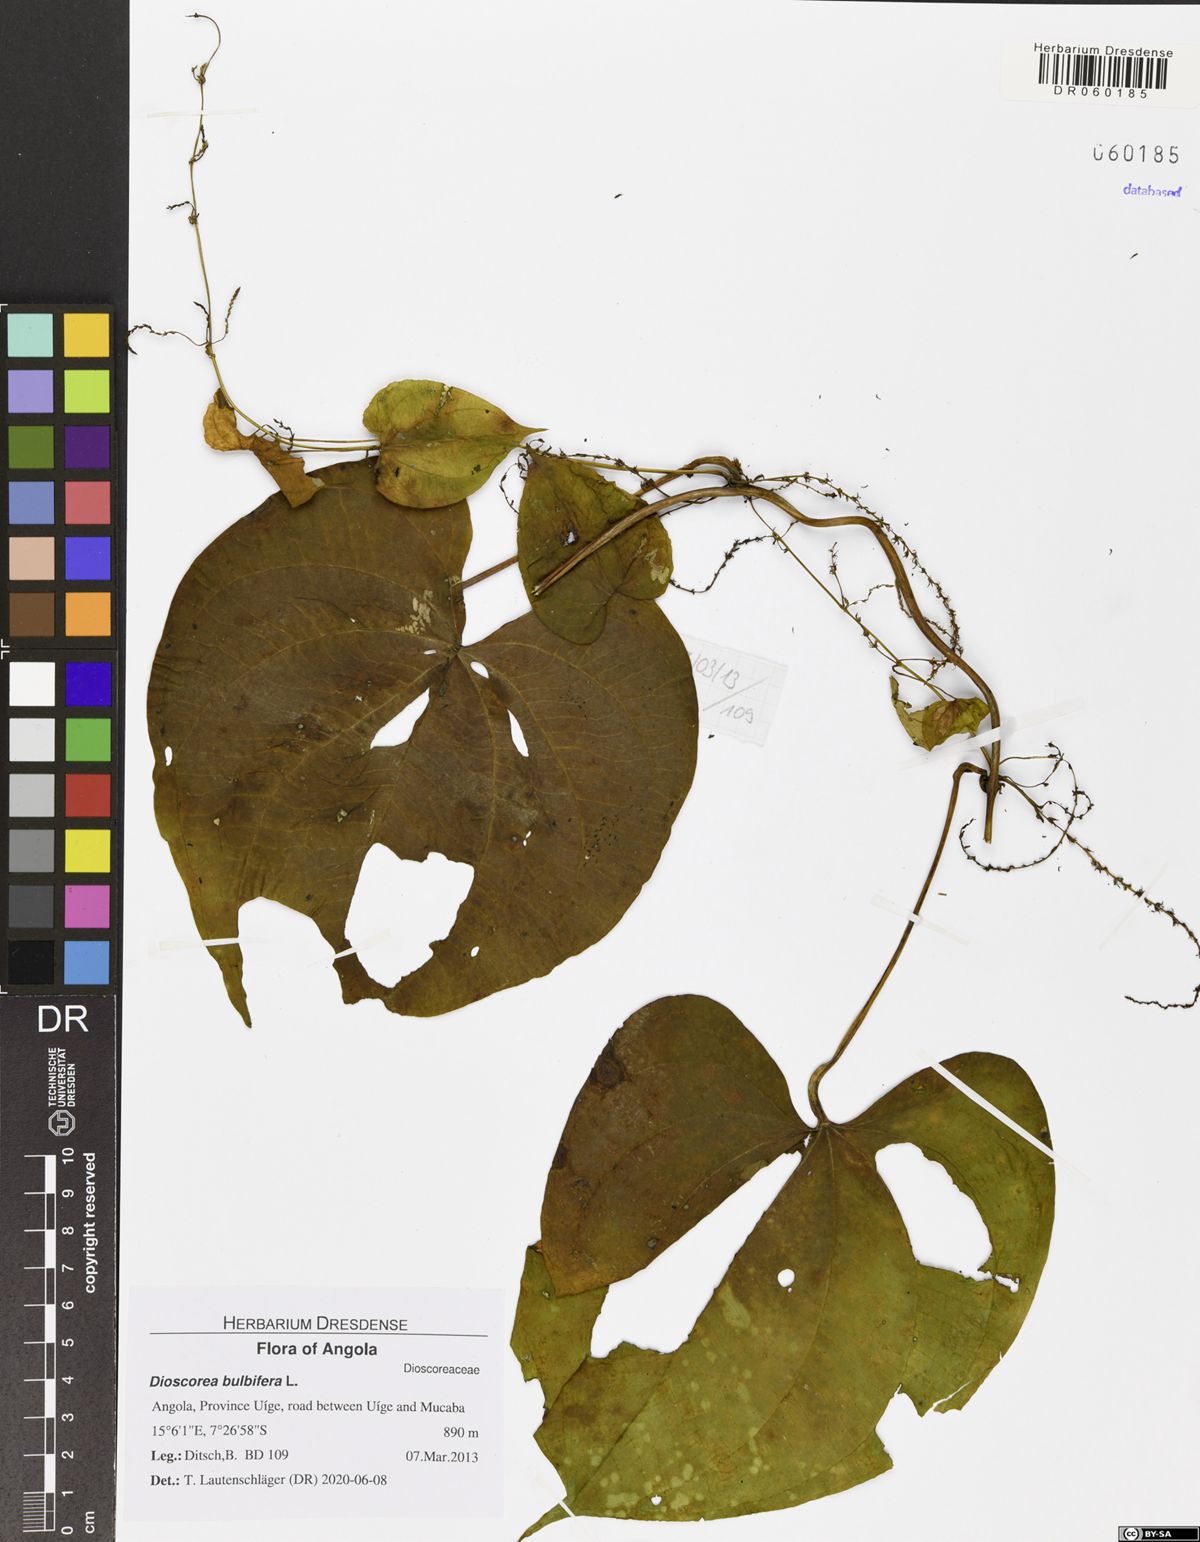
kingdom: Plantae
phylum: Tracheophyta
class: Liliopsida
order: Dioscoreales
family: Dioscoreaceae
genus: Dioscorea
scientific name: Dioscorea bulbifera
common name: Air yam
